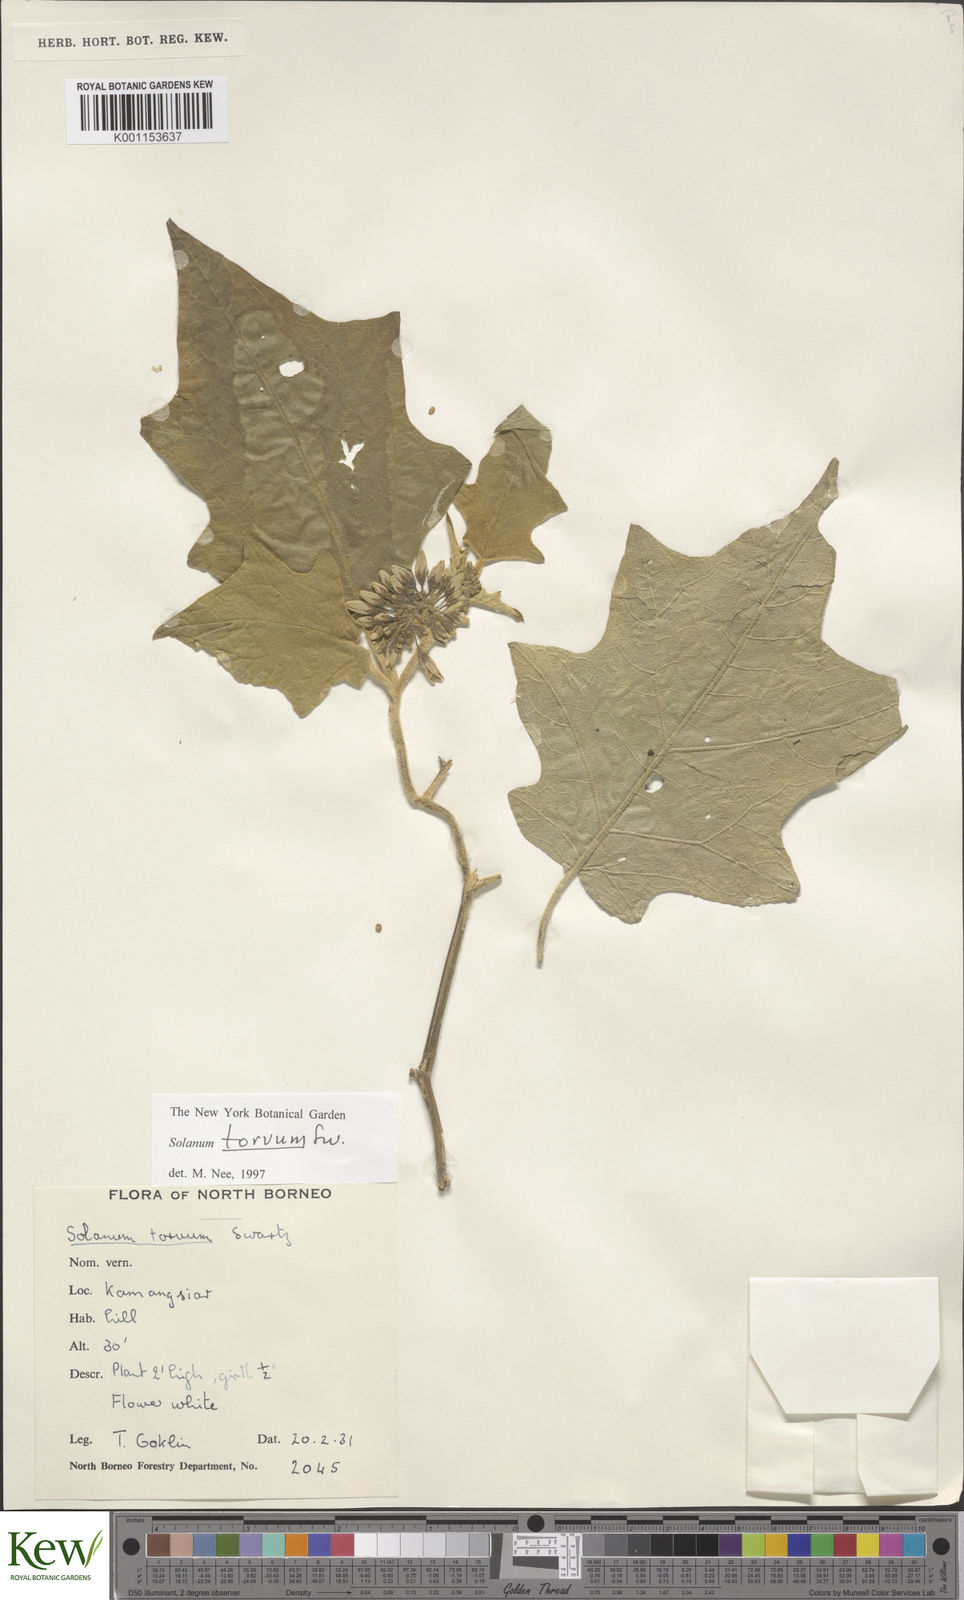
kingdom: Plantae
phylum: Tracheophyta
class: Magnoliopsida
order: Solanales
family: Solanaceae
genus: Solanum
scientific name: Solanum torvum
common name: Turkey berry
